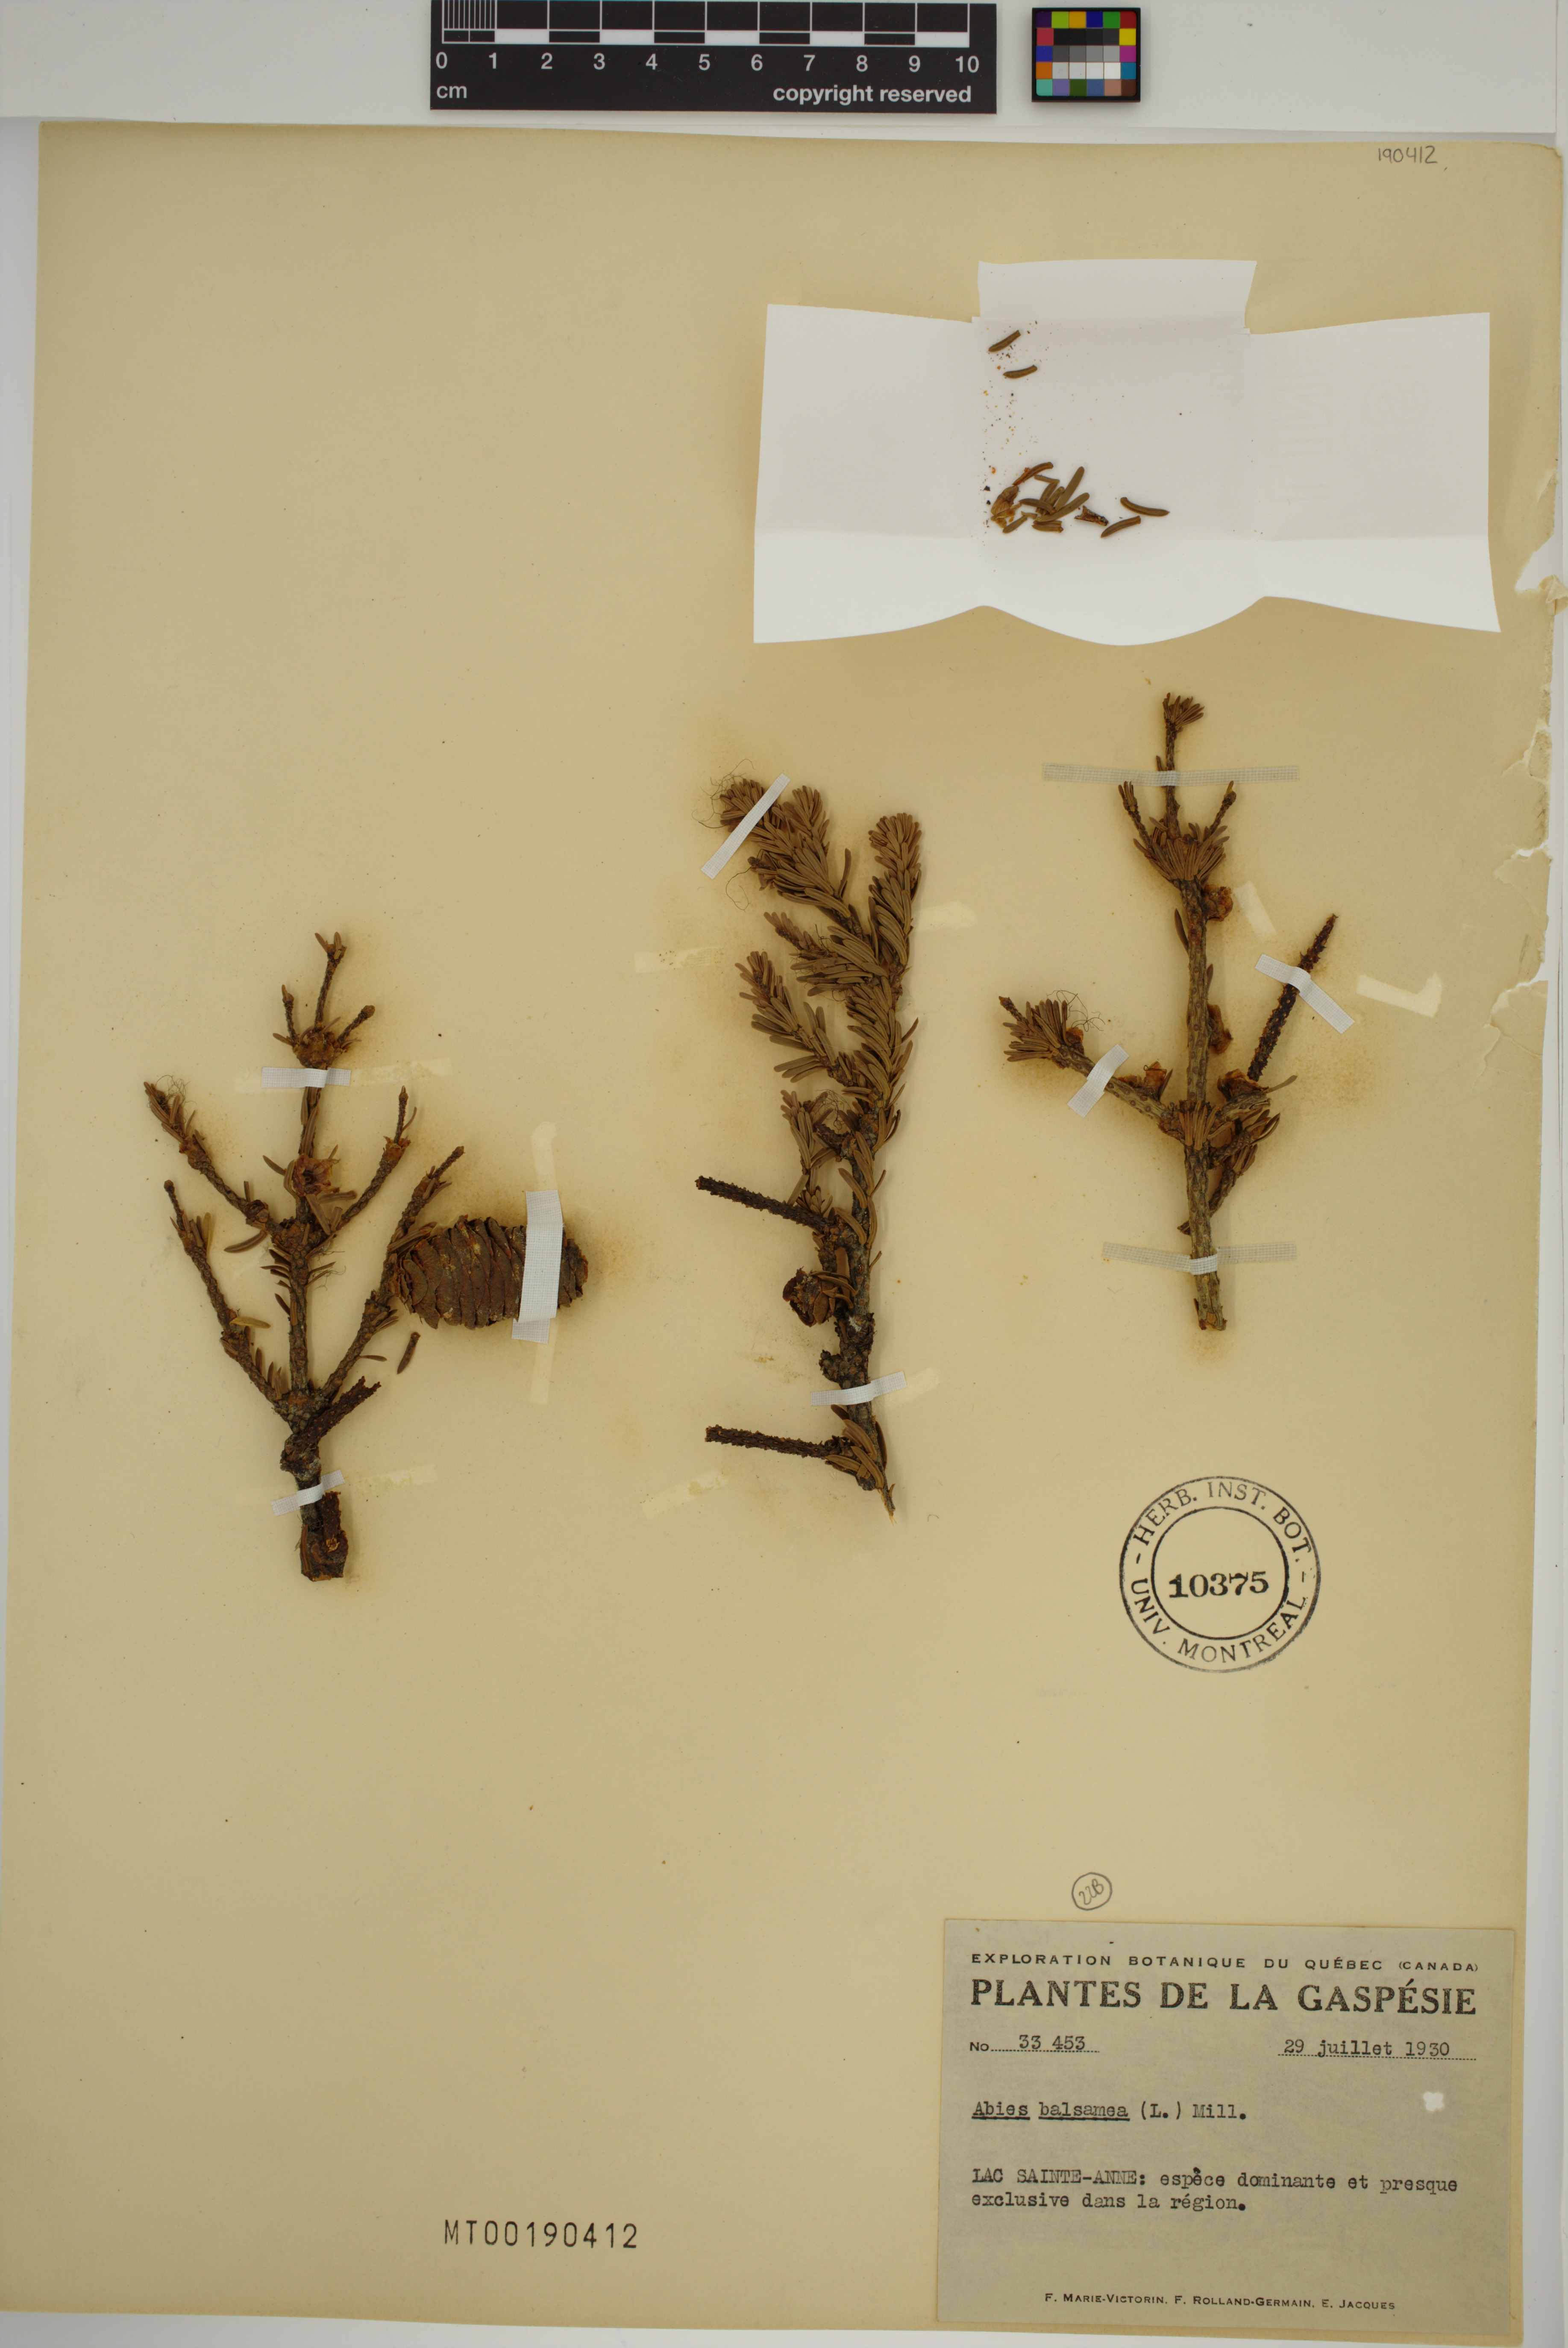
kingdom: Plantae
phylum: Tracheophyta
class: Pinopsida
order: Pinales
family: Pinaceae
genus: Abies
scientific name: Abies balsamea
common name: Balsam fir
